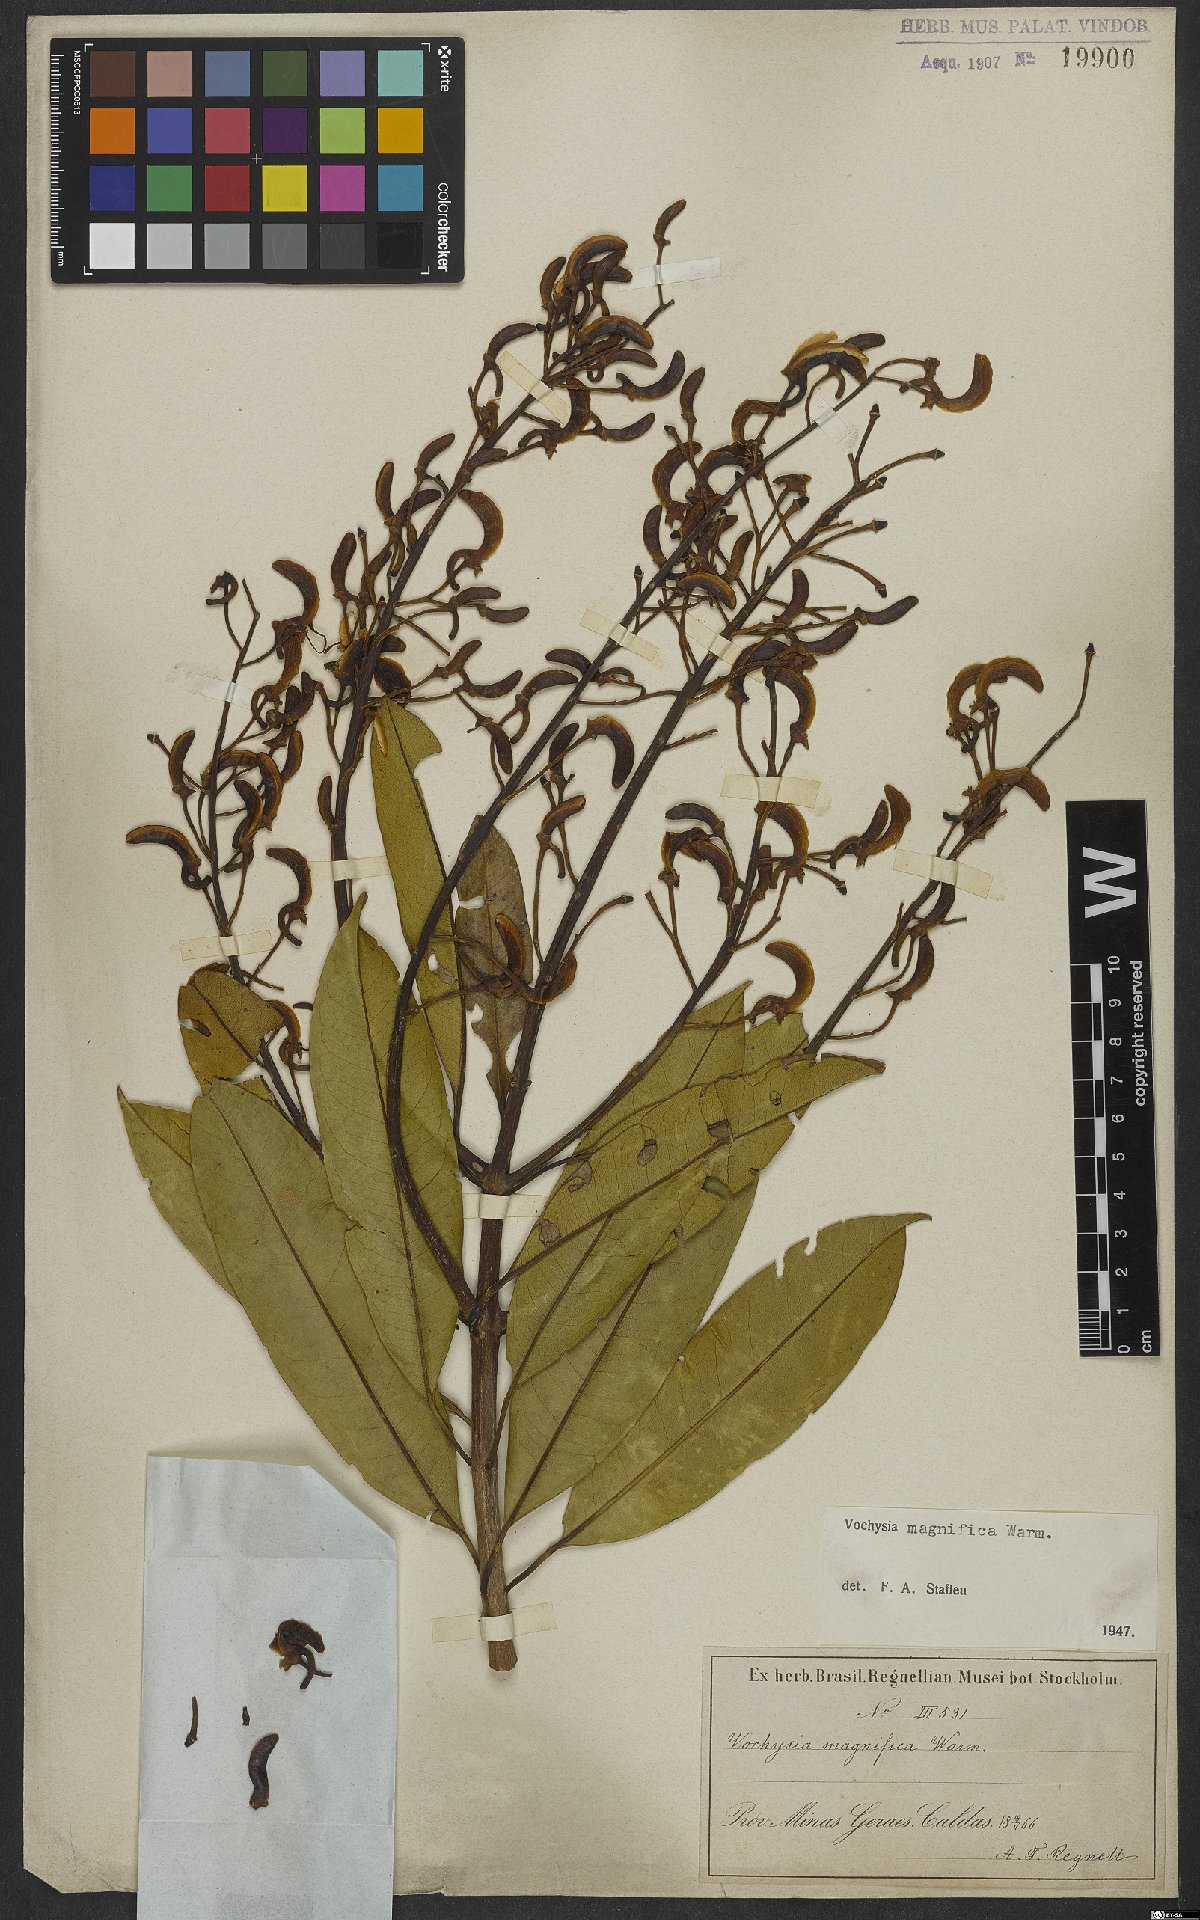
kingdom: Plantae
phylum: Tracheophyta
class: Magnoliopsida
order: Myrtales
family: Vochysiaceae
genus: Vochysia
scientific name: Vochysia magnifica
